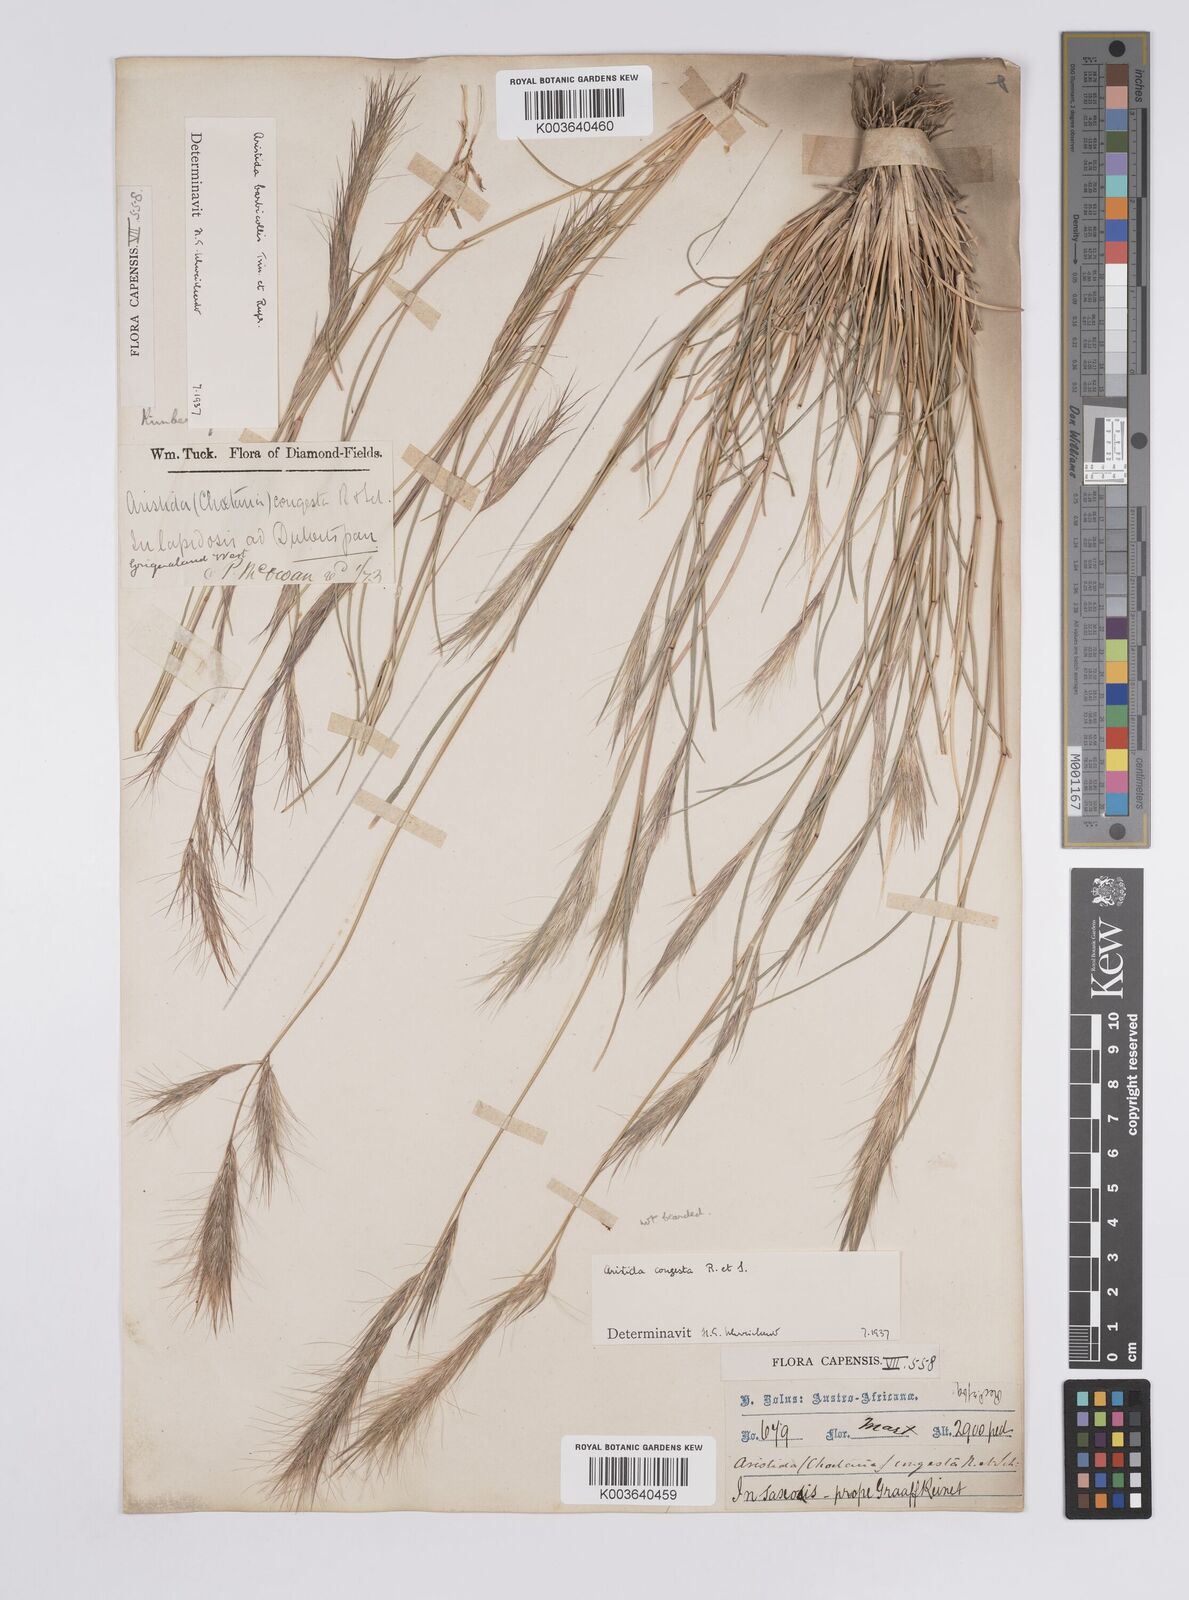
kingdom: Plantae
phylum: Tracheophyta
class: Liliopsida
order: Poales
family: Poaceae
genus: Aristida
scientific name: Aristida barbicollis
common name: Spreading prickle grass
